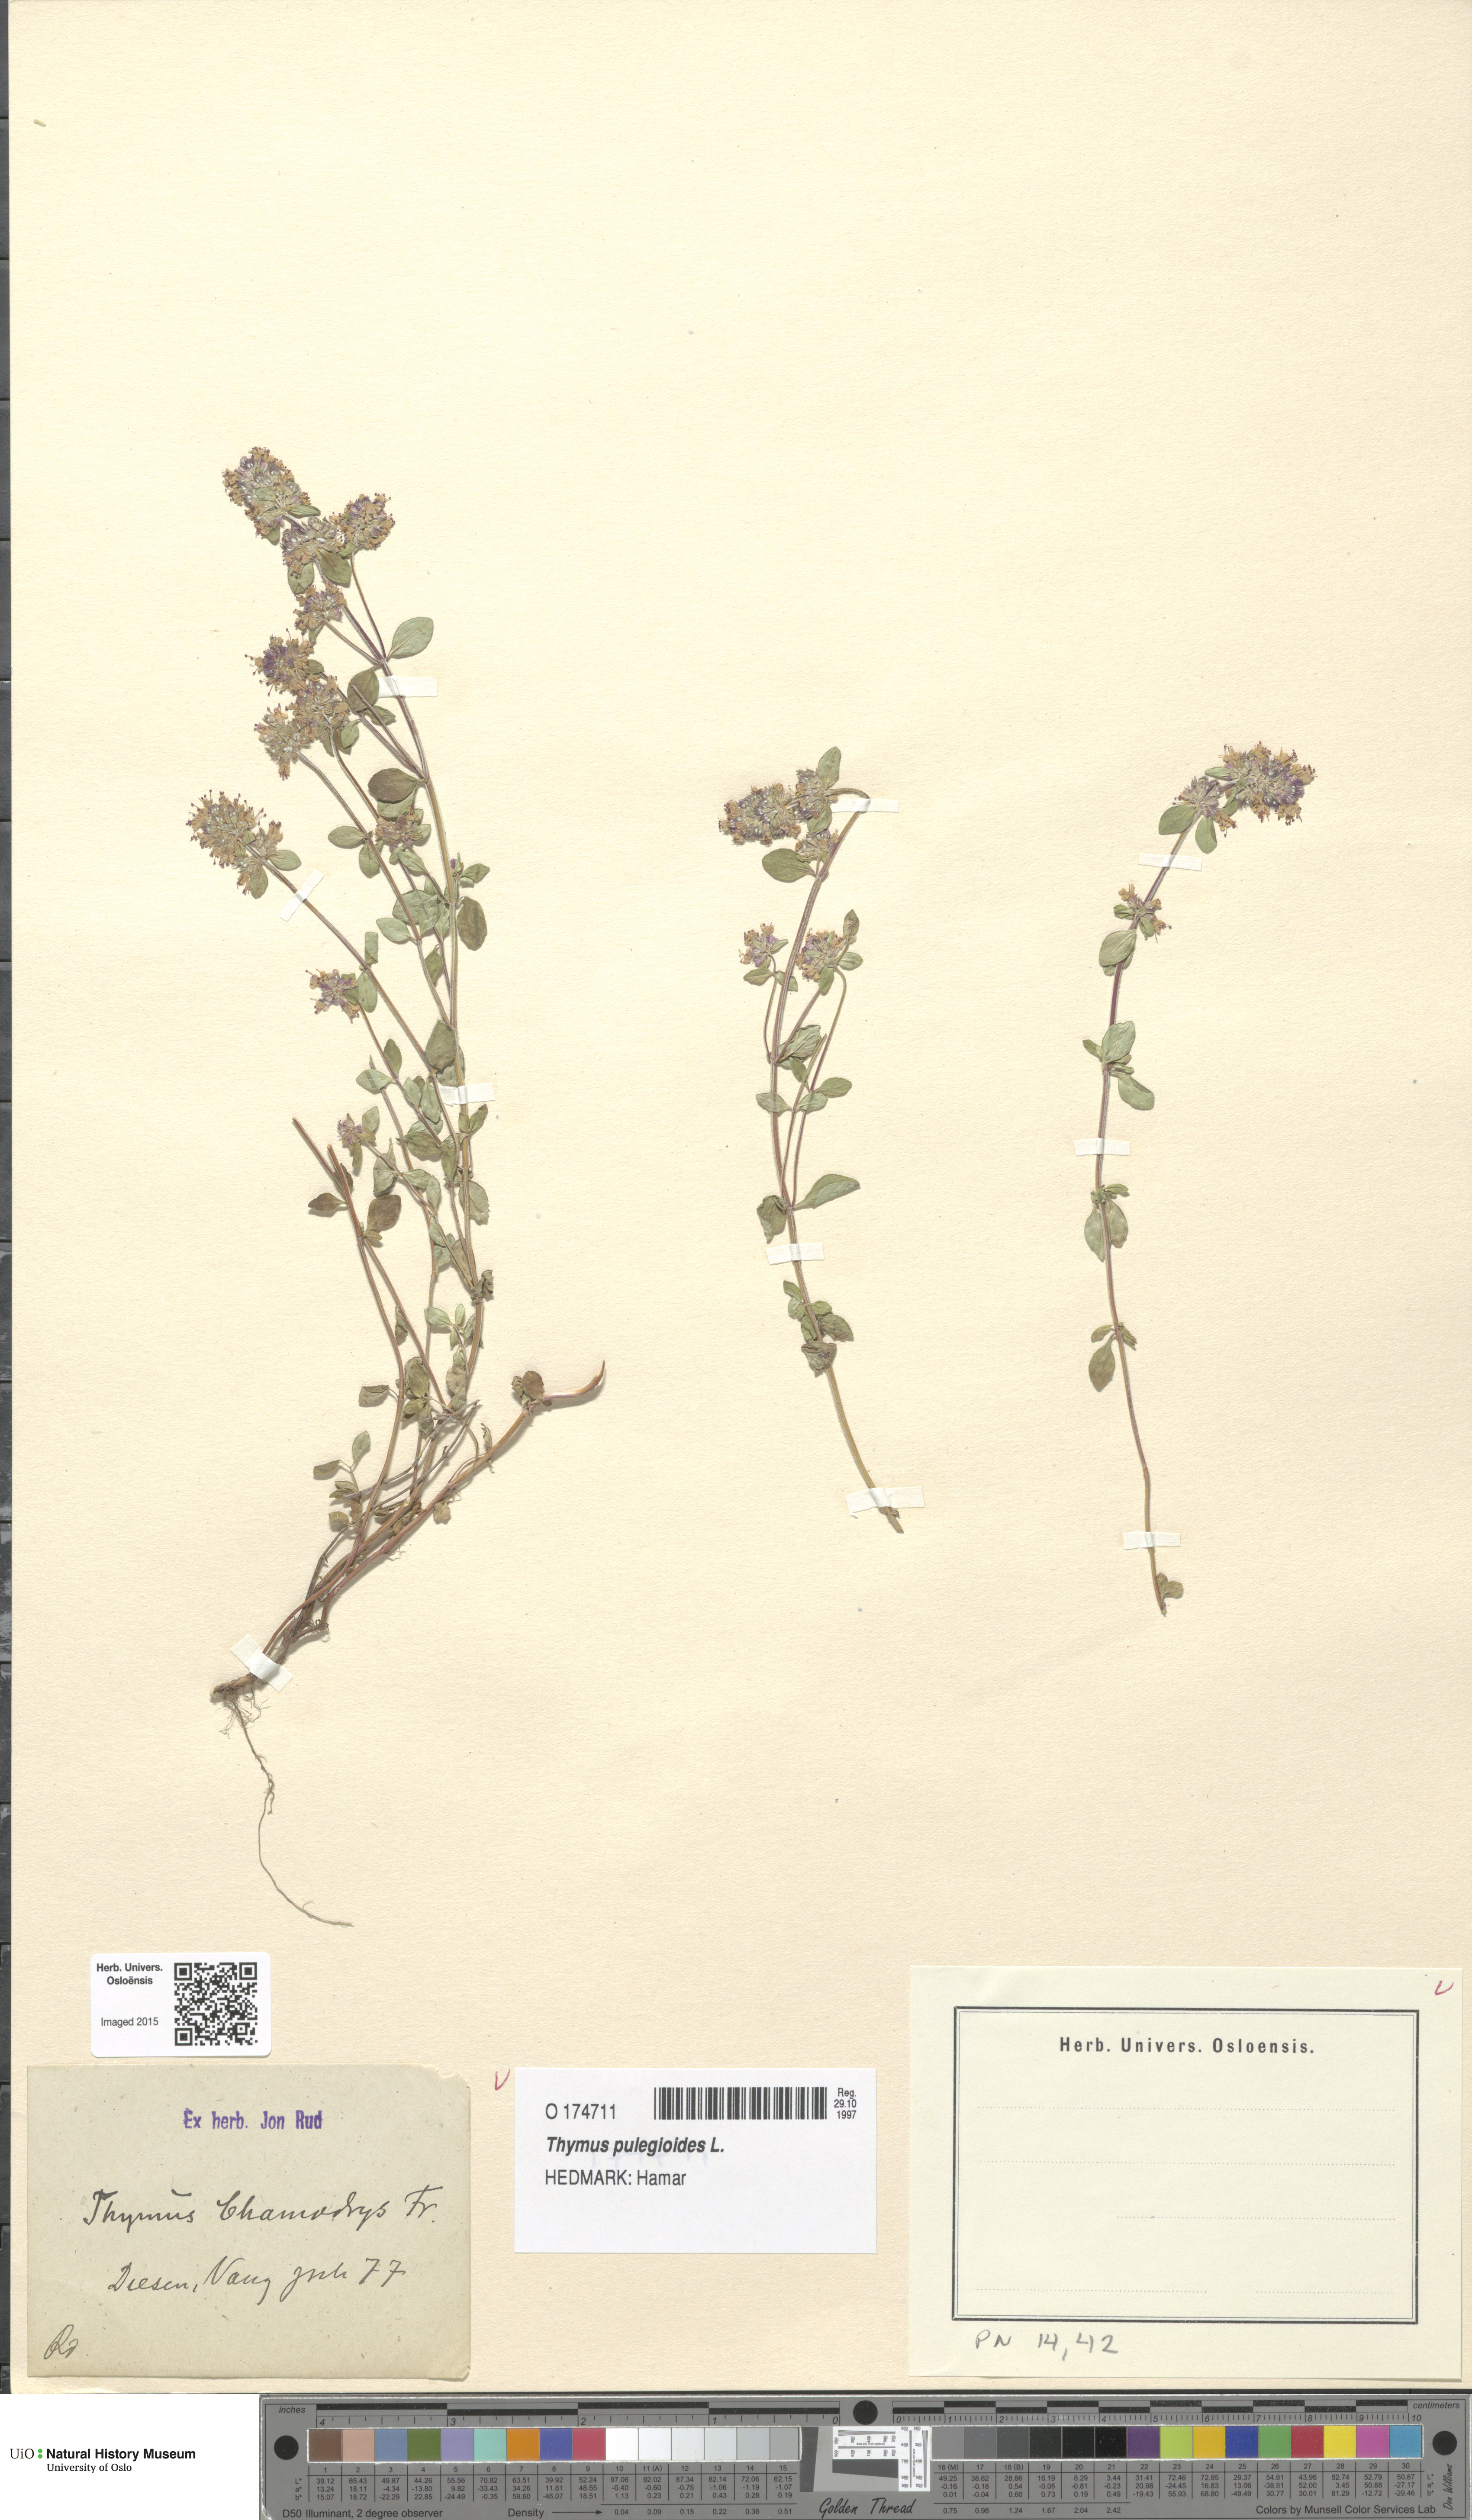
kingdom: Plantae
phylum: Tracheophyta
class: Magnoliopsida
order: Lamiales
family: Lamiaceae
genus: Thymus
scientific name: Thymus pulegioides
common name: Large thyme
